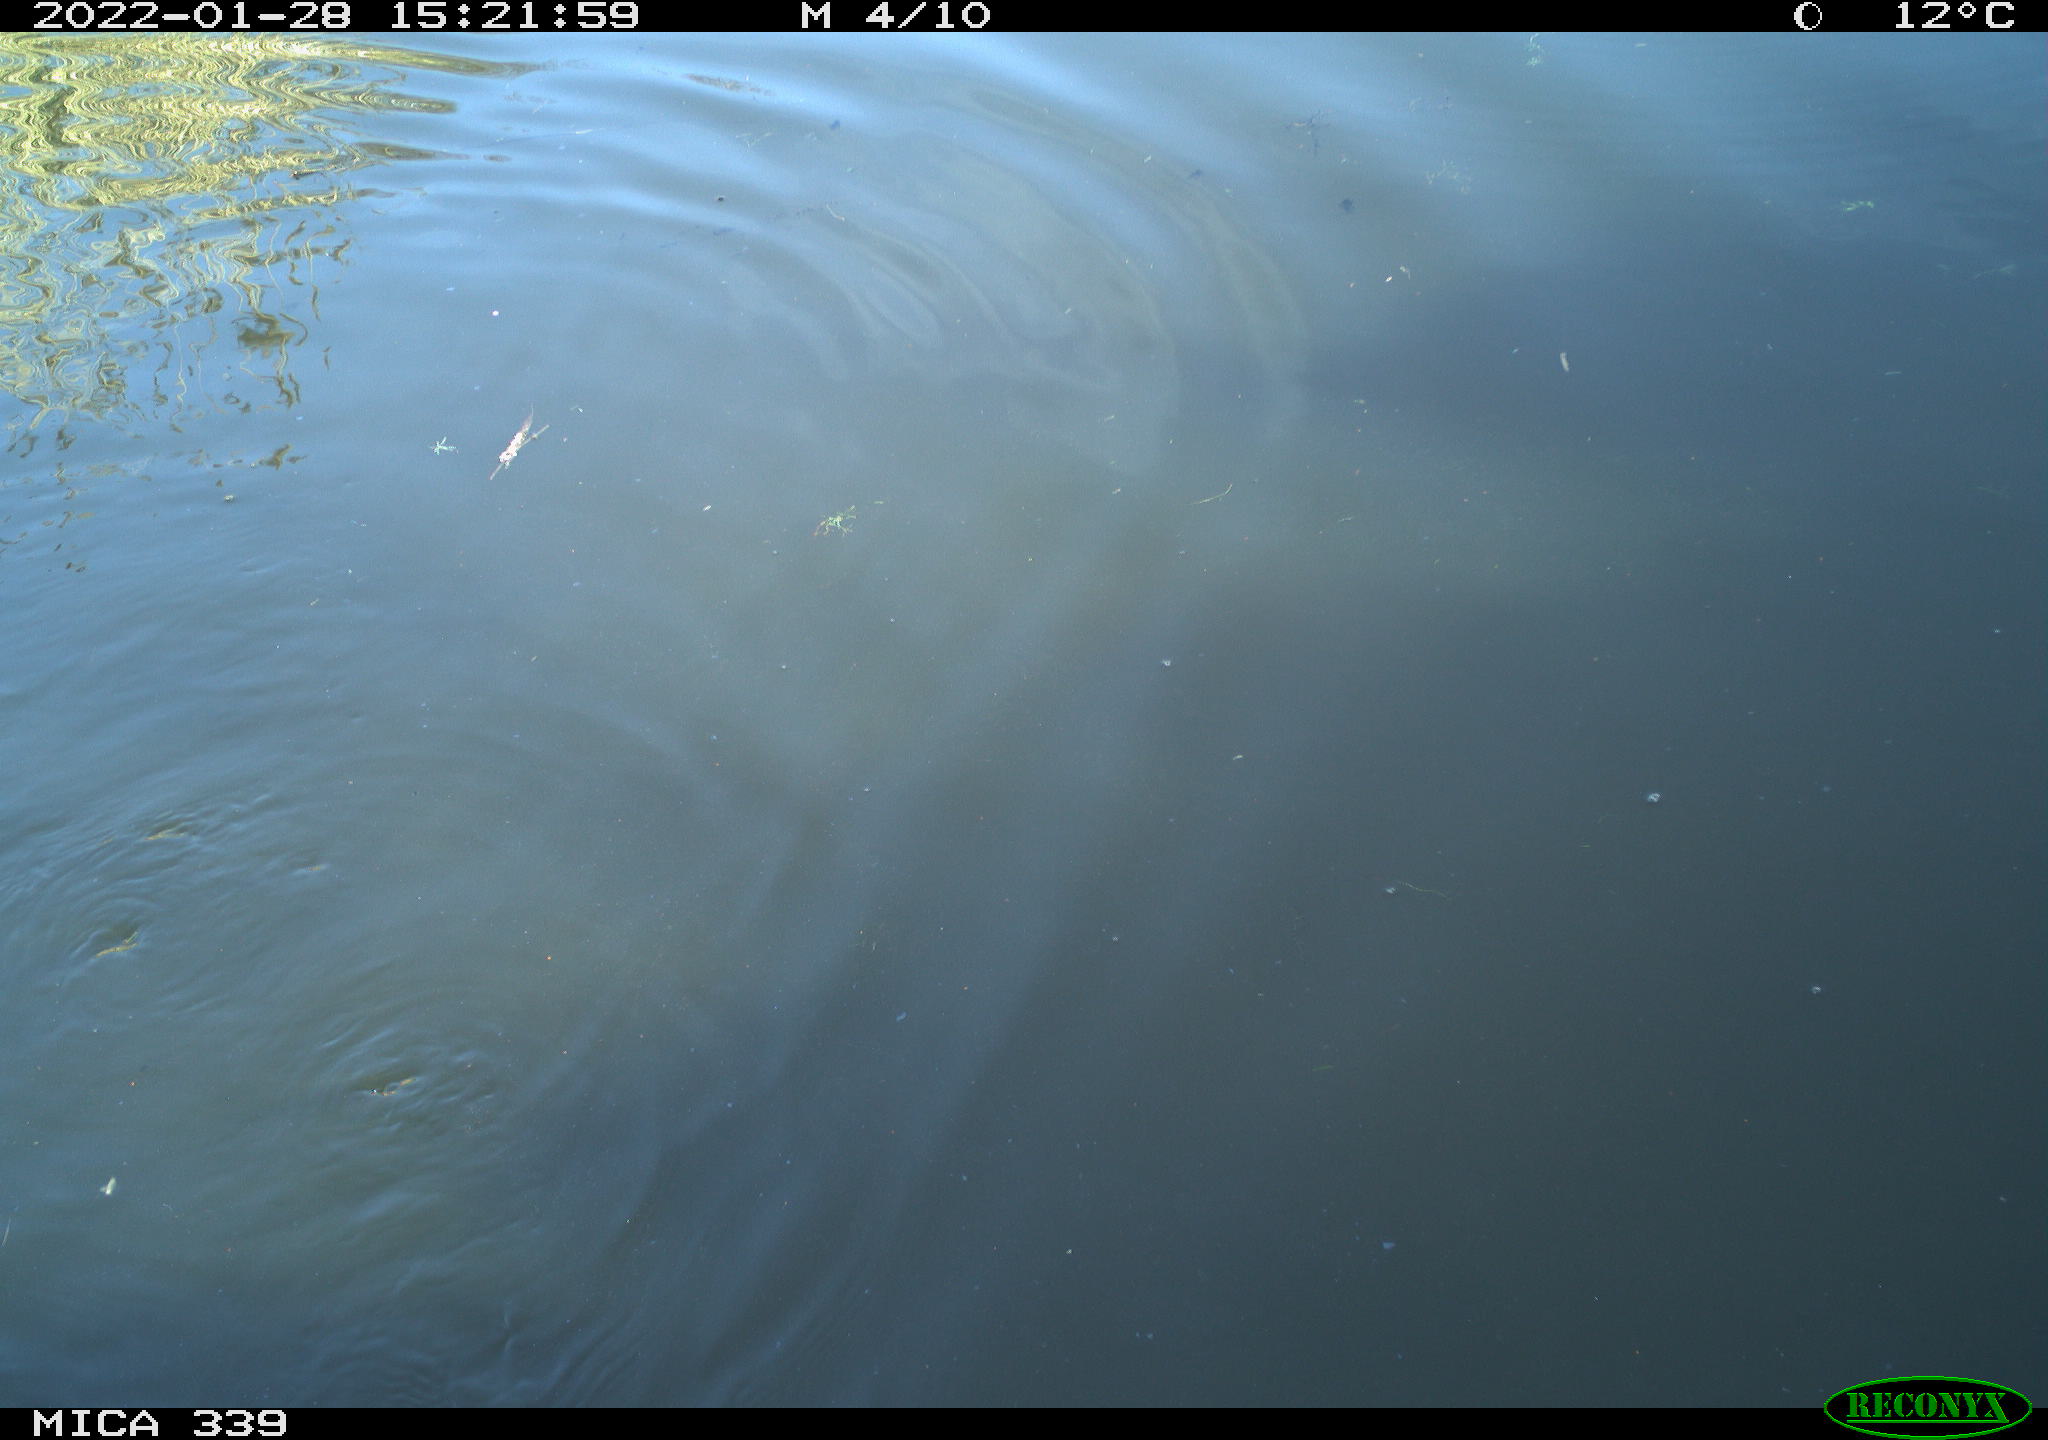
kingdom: Animalia
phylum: Chordata
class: Aves
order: Suliformes
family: Phalacrocoracidae
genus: Phalacrocorax
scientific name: Phalacrocorax carbo
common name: Great cormorant
